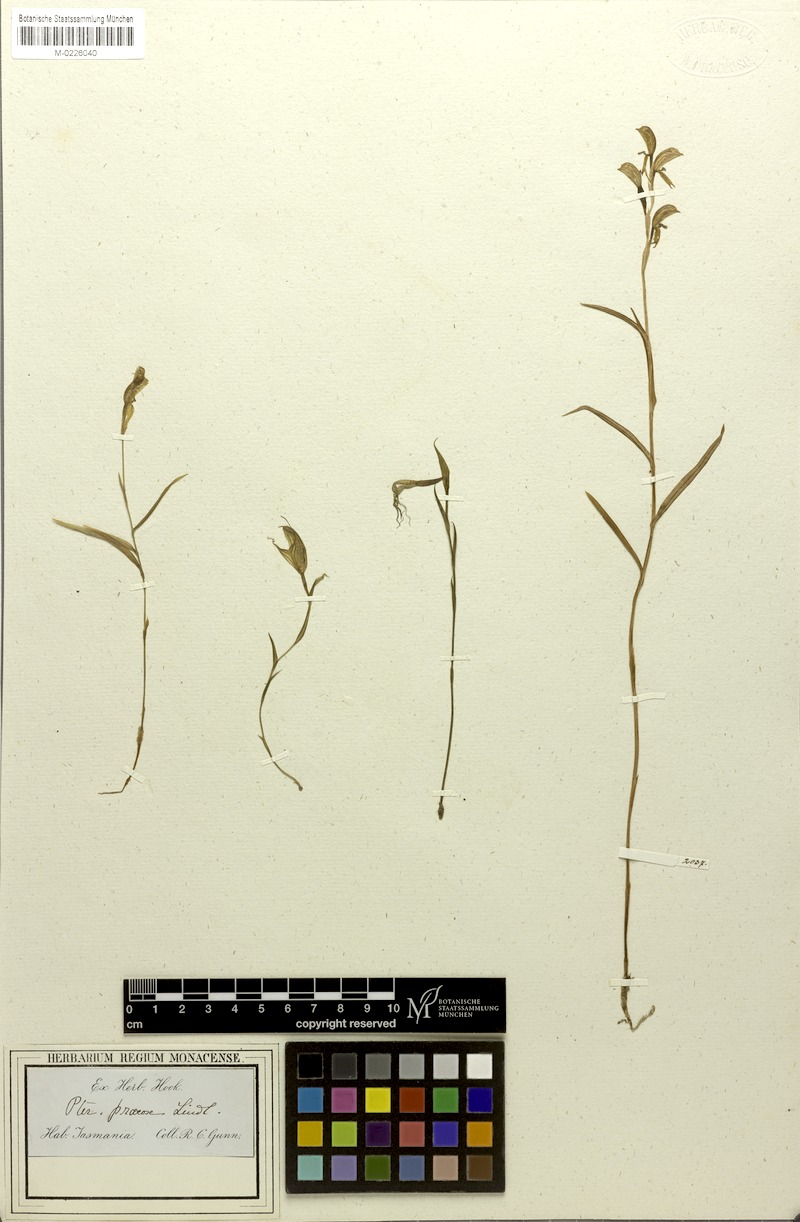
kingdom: Plantae
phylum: Tracheophyta
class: Liliopsida
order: Asparagales
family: Orchidaceae
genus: Pterostylis
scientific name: Pterostylis alata
